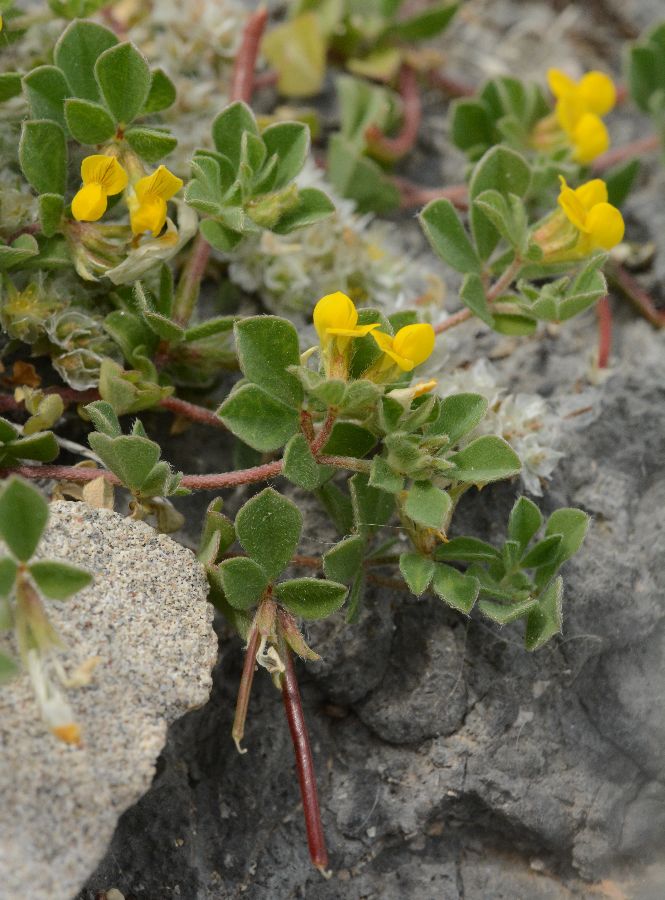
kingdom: Plantae
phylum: Tracheophyta
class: Magnoliopsida
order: Fabales
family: Fabaceae
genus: Lotus
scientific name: Lotus halophilus
